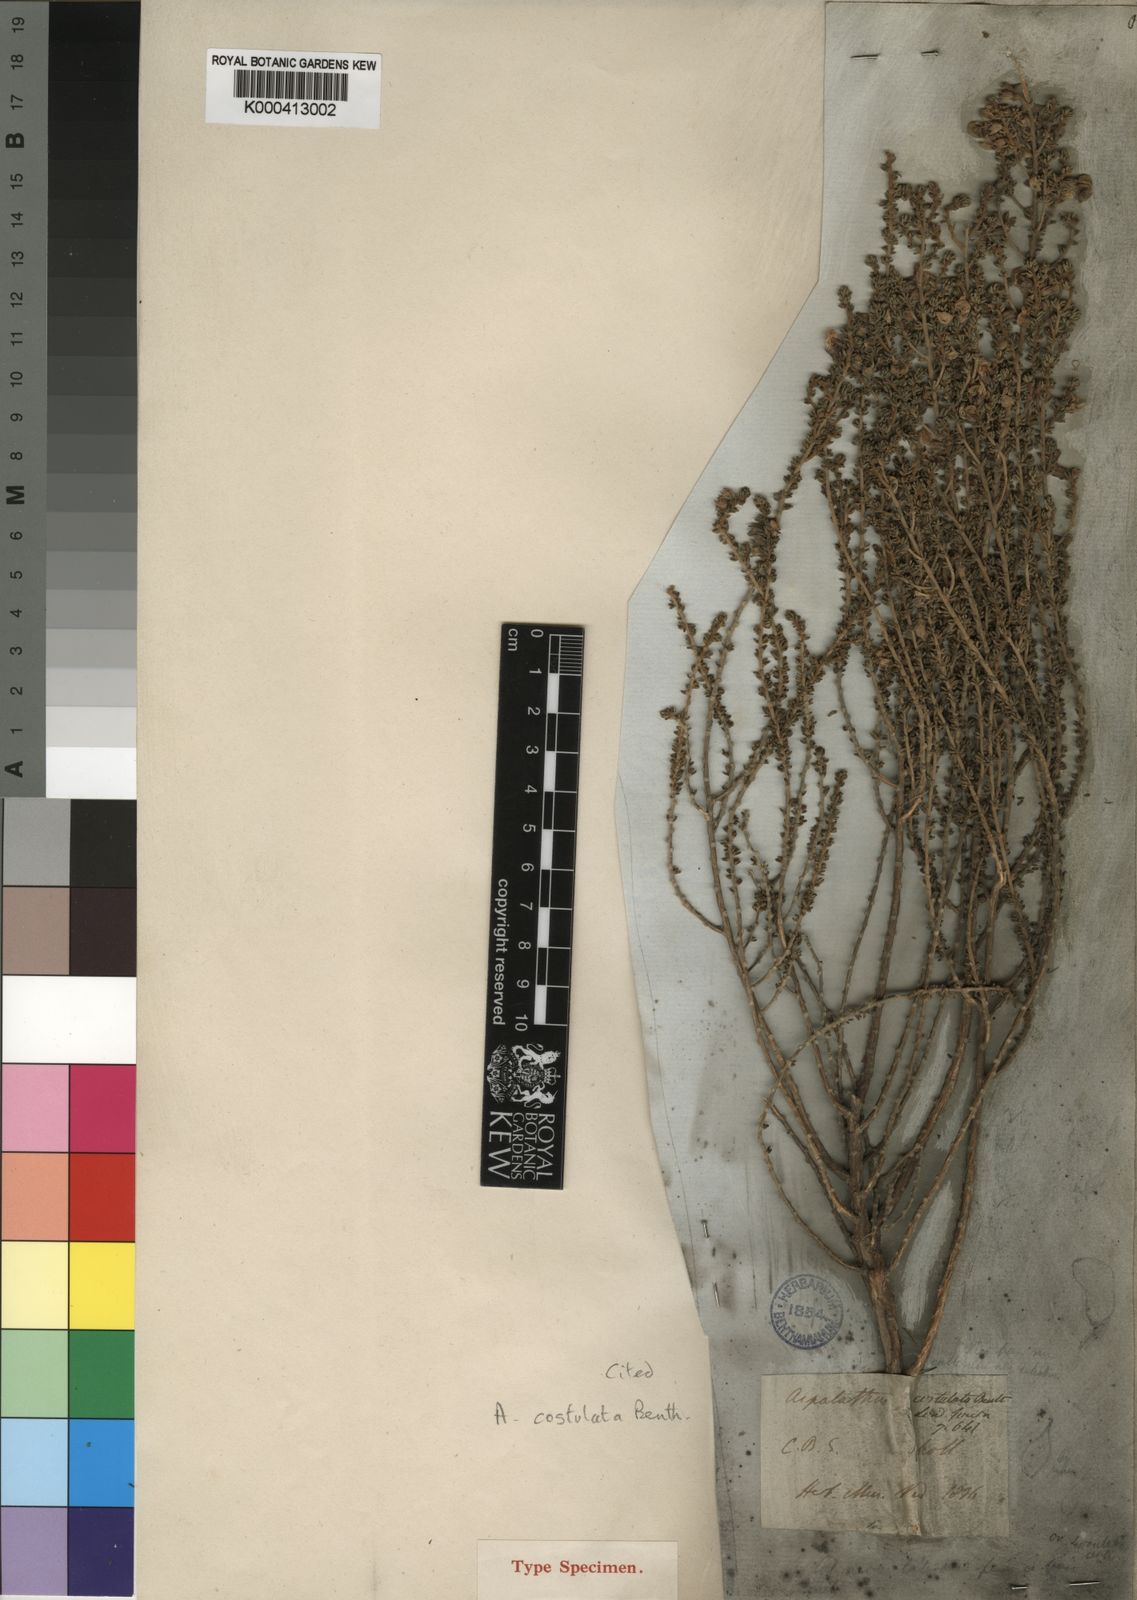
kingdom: Plantae
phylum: Tracheophyta
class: Magnoliopsida
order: Fabales
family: Fabaceae
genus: Aspalathus
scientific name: Aspalathus costulata
